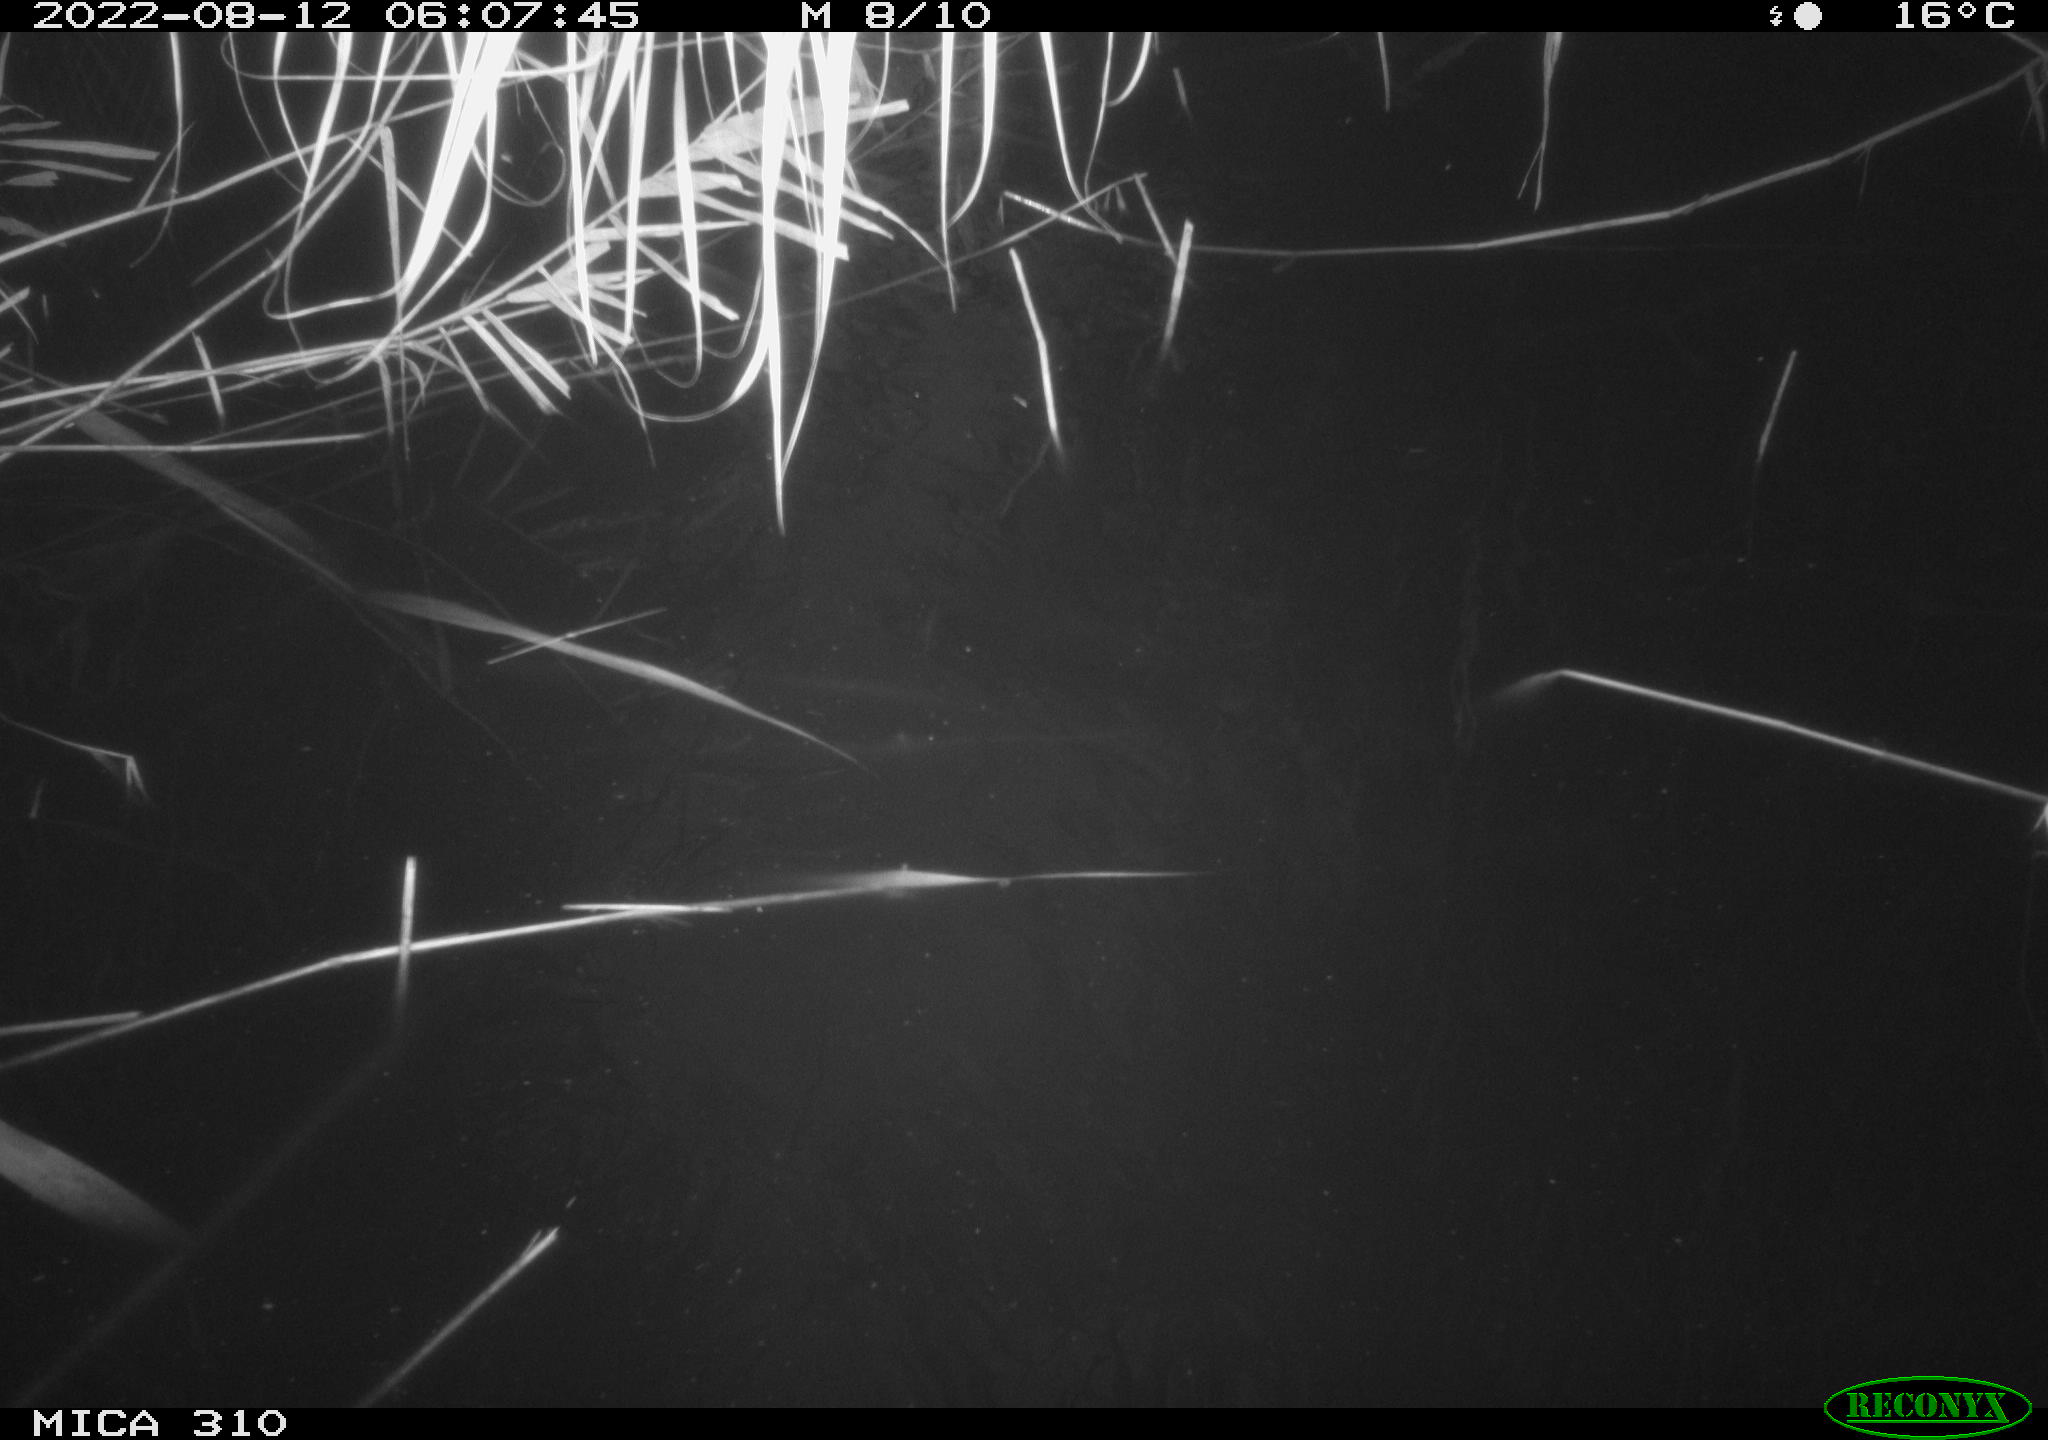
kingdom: Animalia
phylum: Chordata
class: Aves
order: Anseriformes
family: Anatidae
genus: Anas
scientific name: Anas platyrhynchos
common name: Mallard
